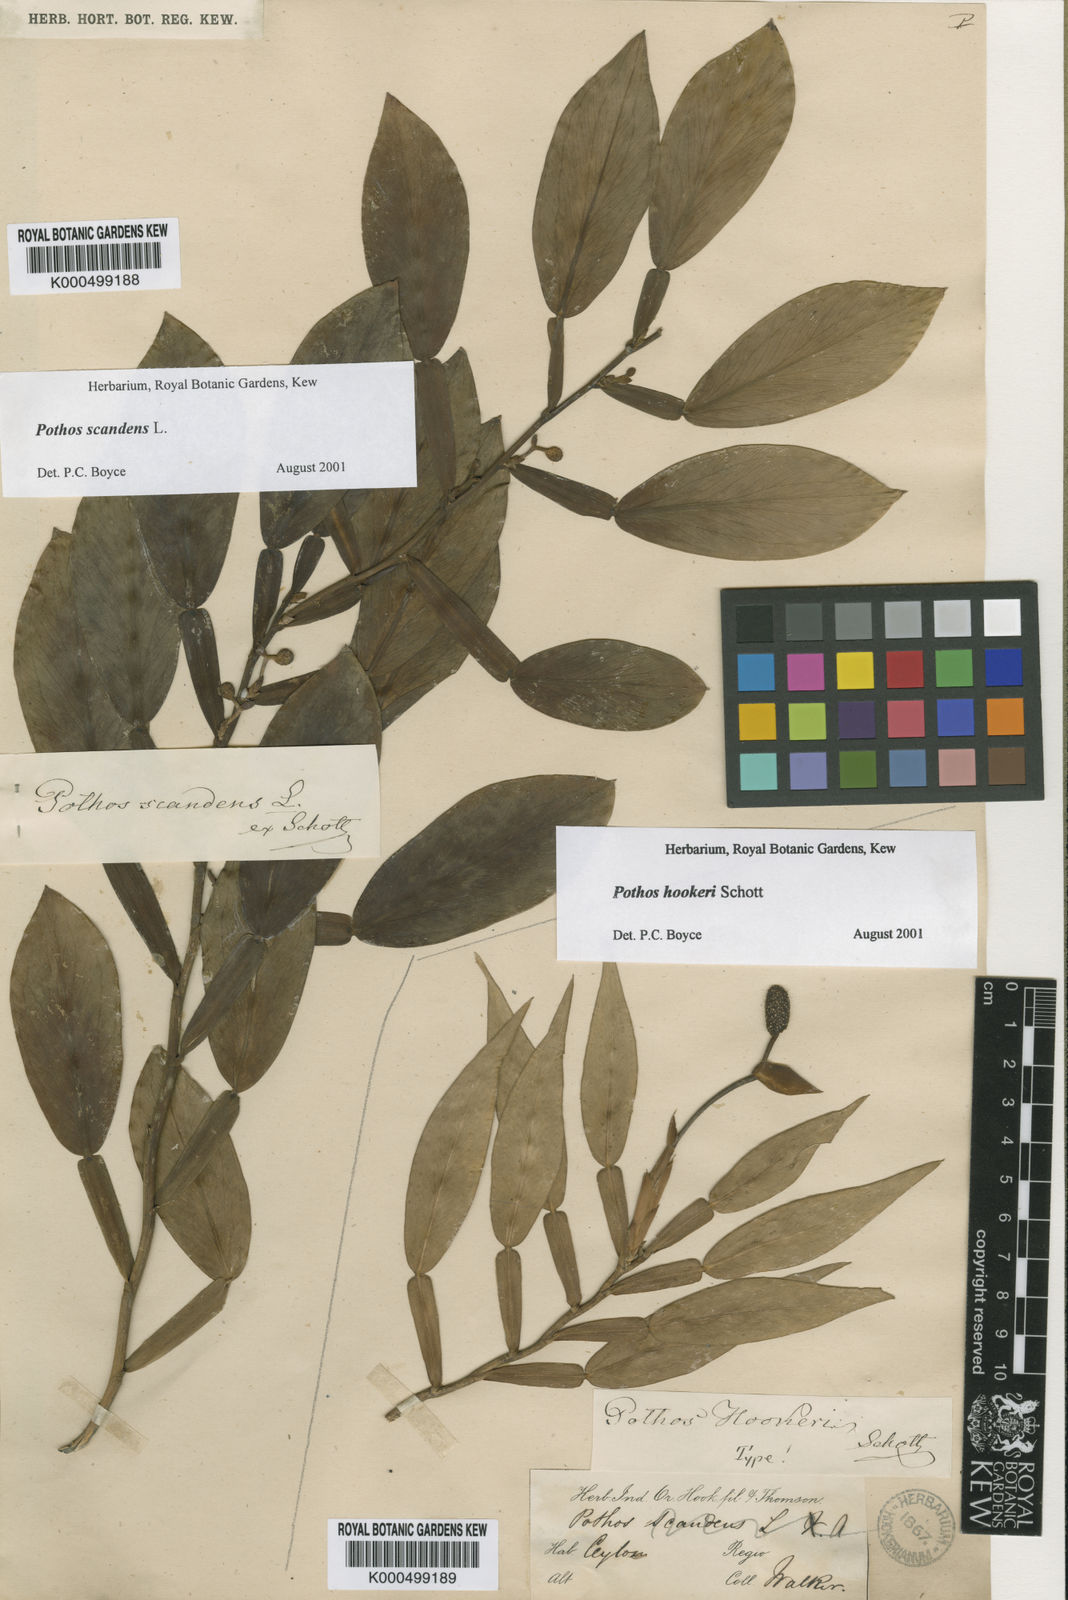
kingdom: Plantae
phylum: Tracheophyta
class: Liliopsida
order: Alismatales
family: Araceae
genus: Pothos
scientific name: Pothos scandens
